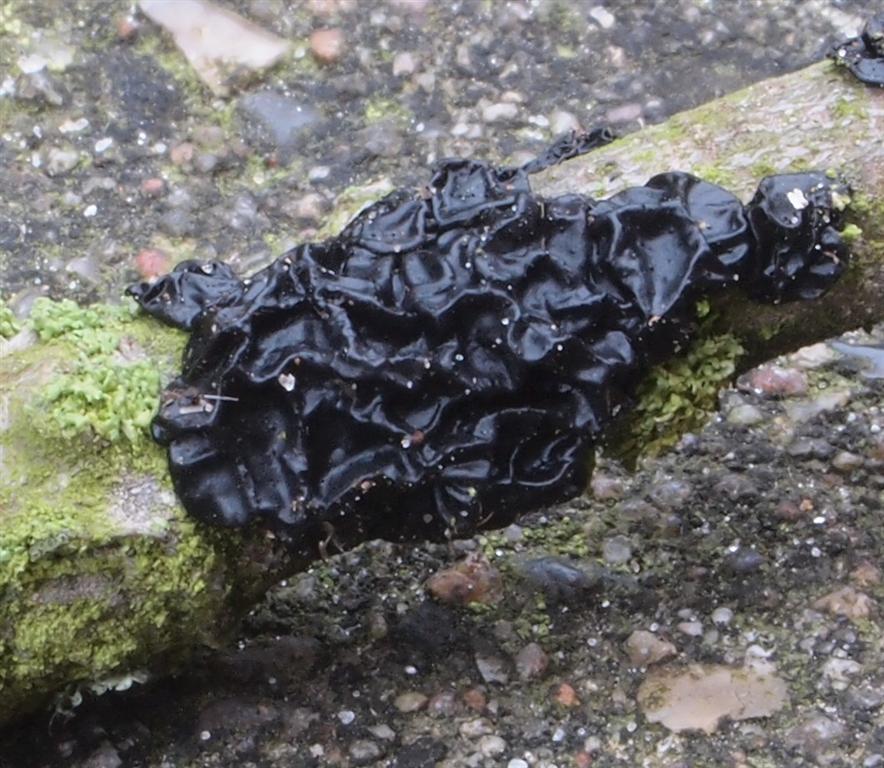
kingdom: Fungi
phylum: Basidiomycota
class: Agaricomycetes
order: Auriculariales
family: Auriculariaceae
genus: Exidia
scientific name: Exidia nigricans
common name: almindelig bævretop
